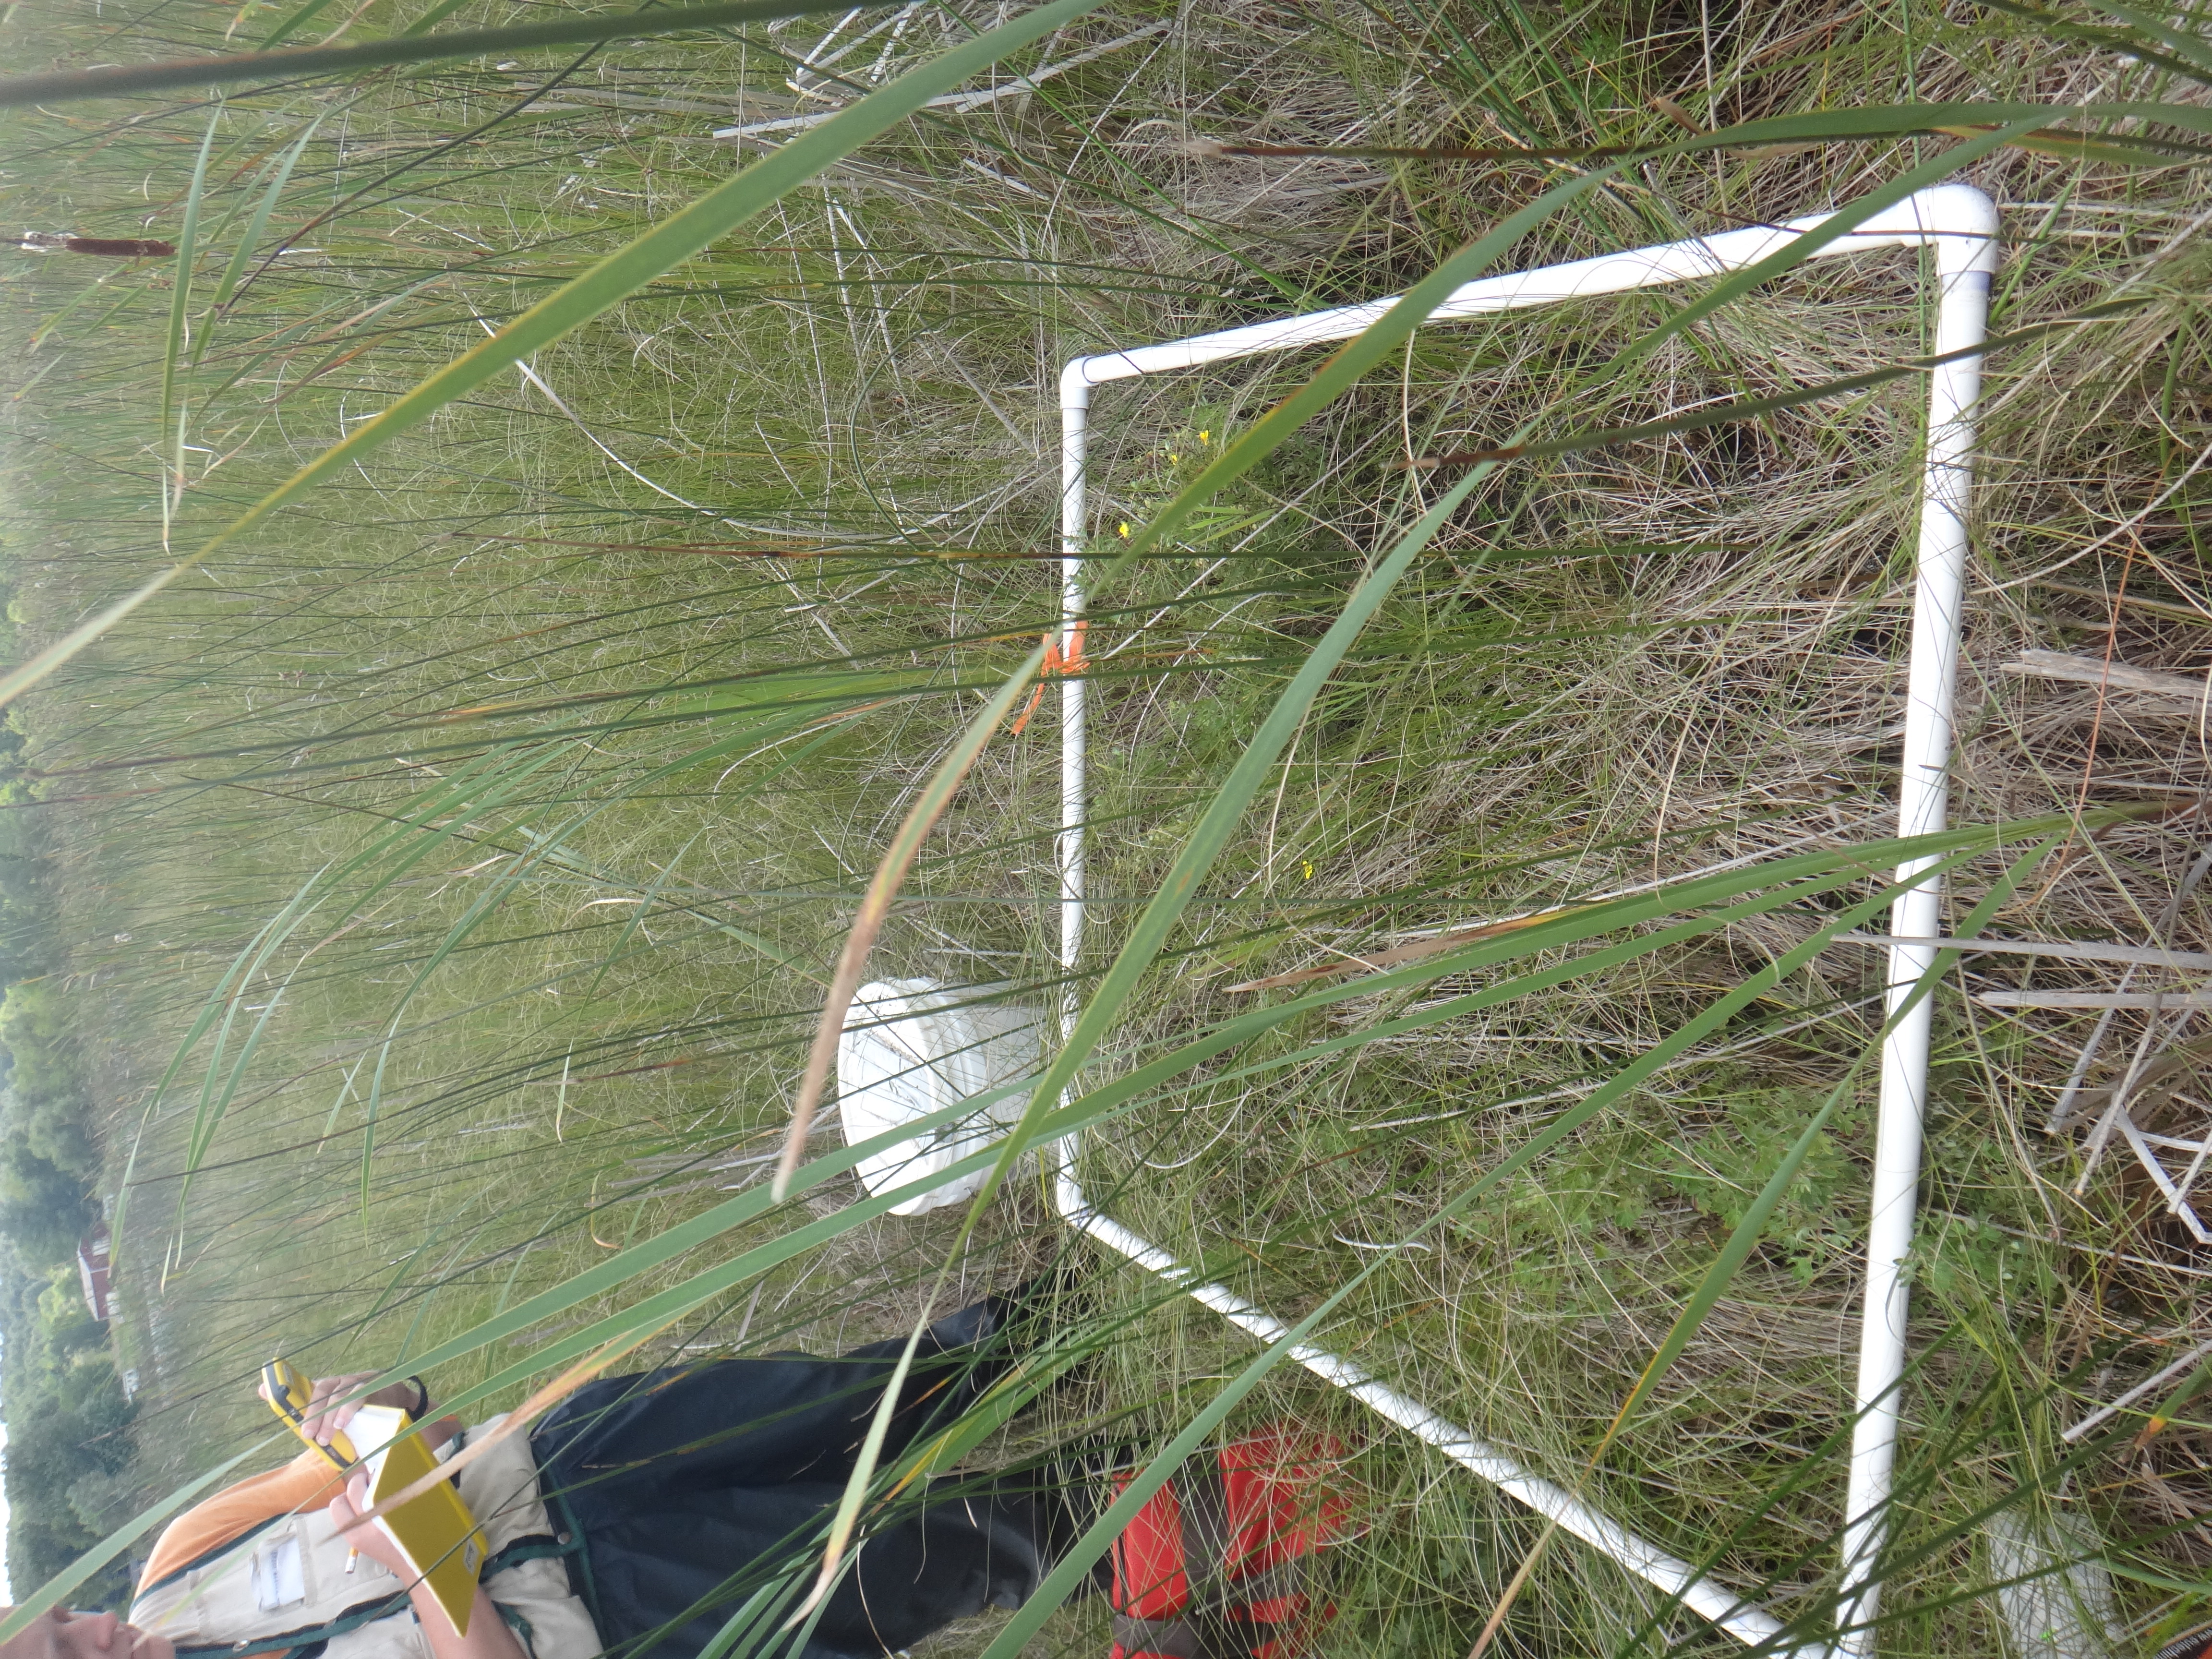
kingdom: Plantae
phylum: Tracheophyta
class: Magnoliopsida
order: Asterales
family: Campanulaceae
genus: Palustricodon
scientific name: Palustricodon aparinoides
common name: Bedstraw bellflower
